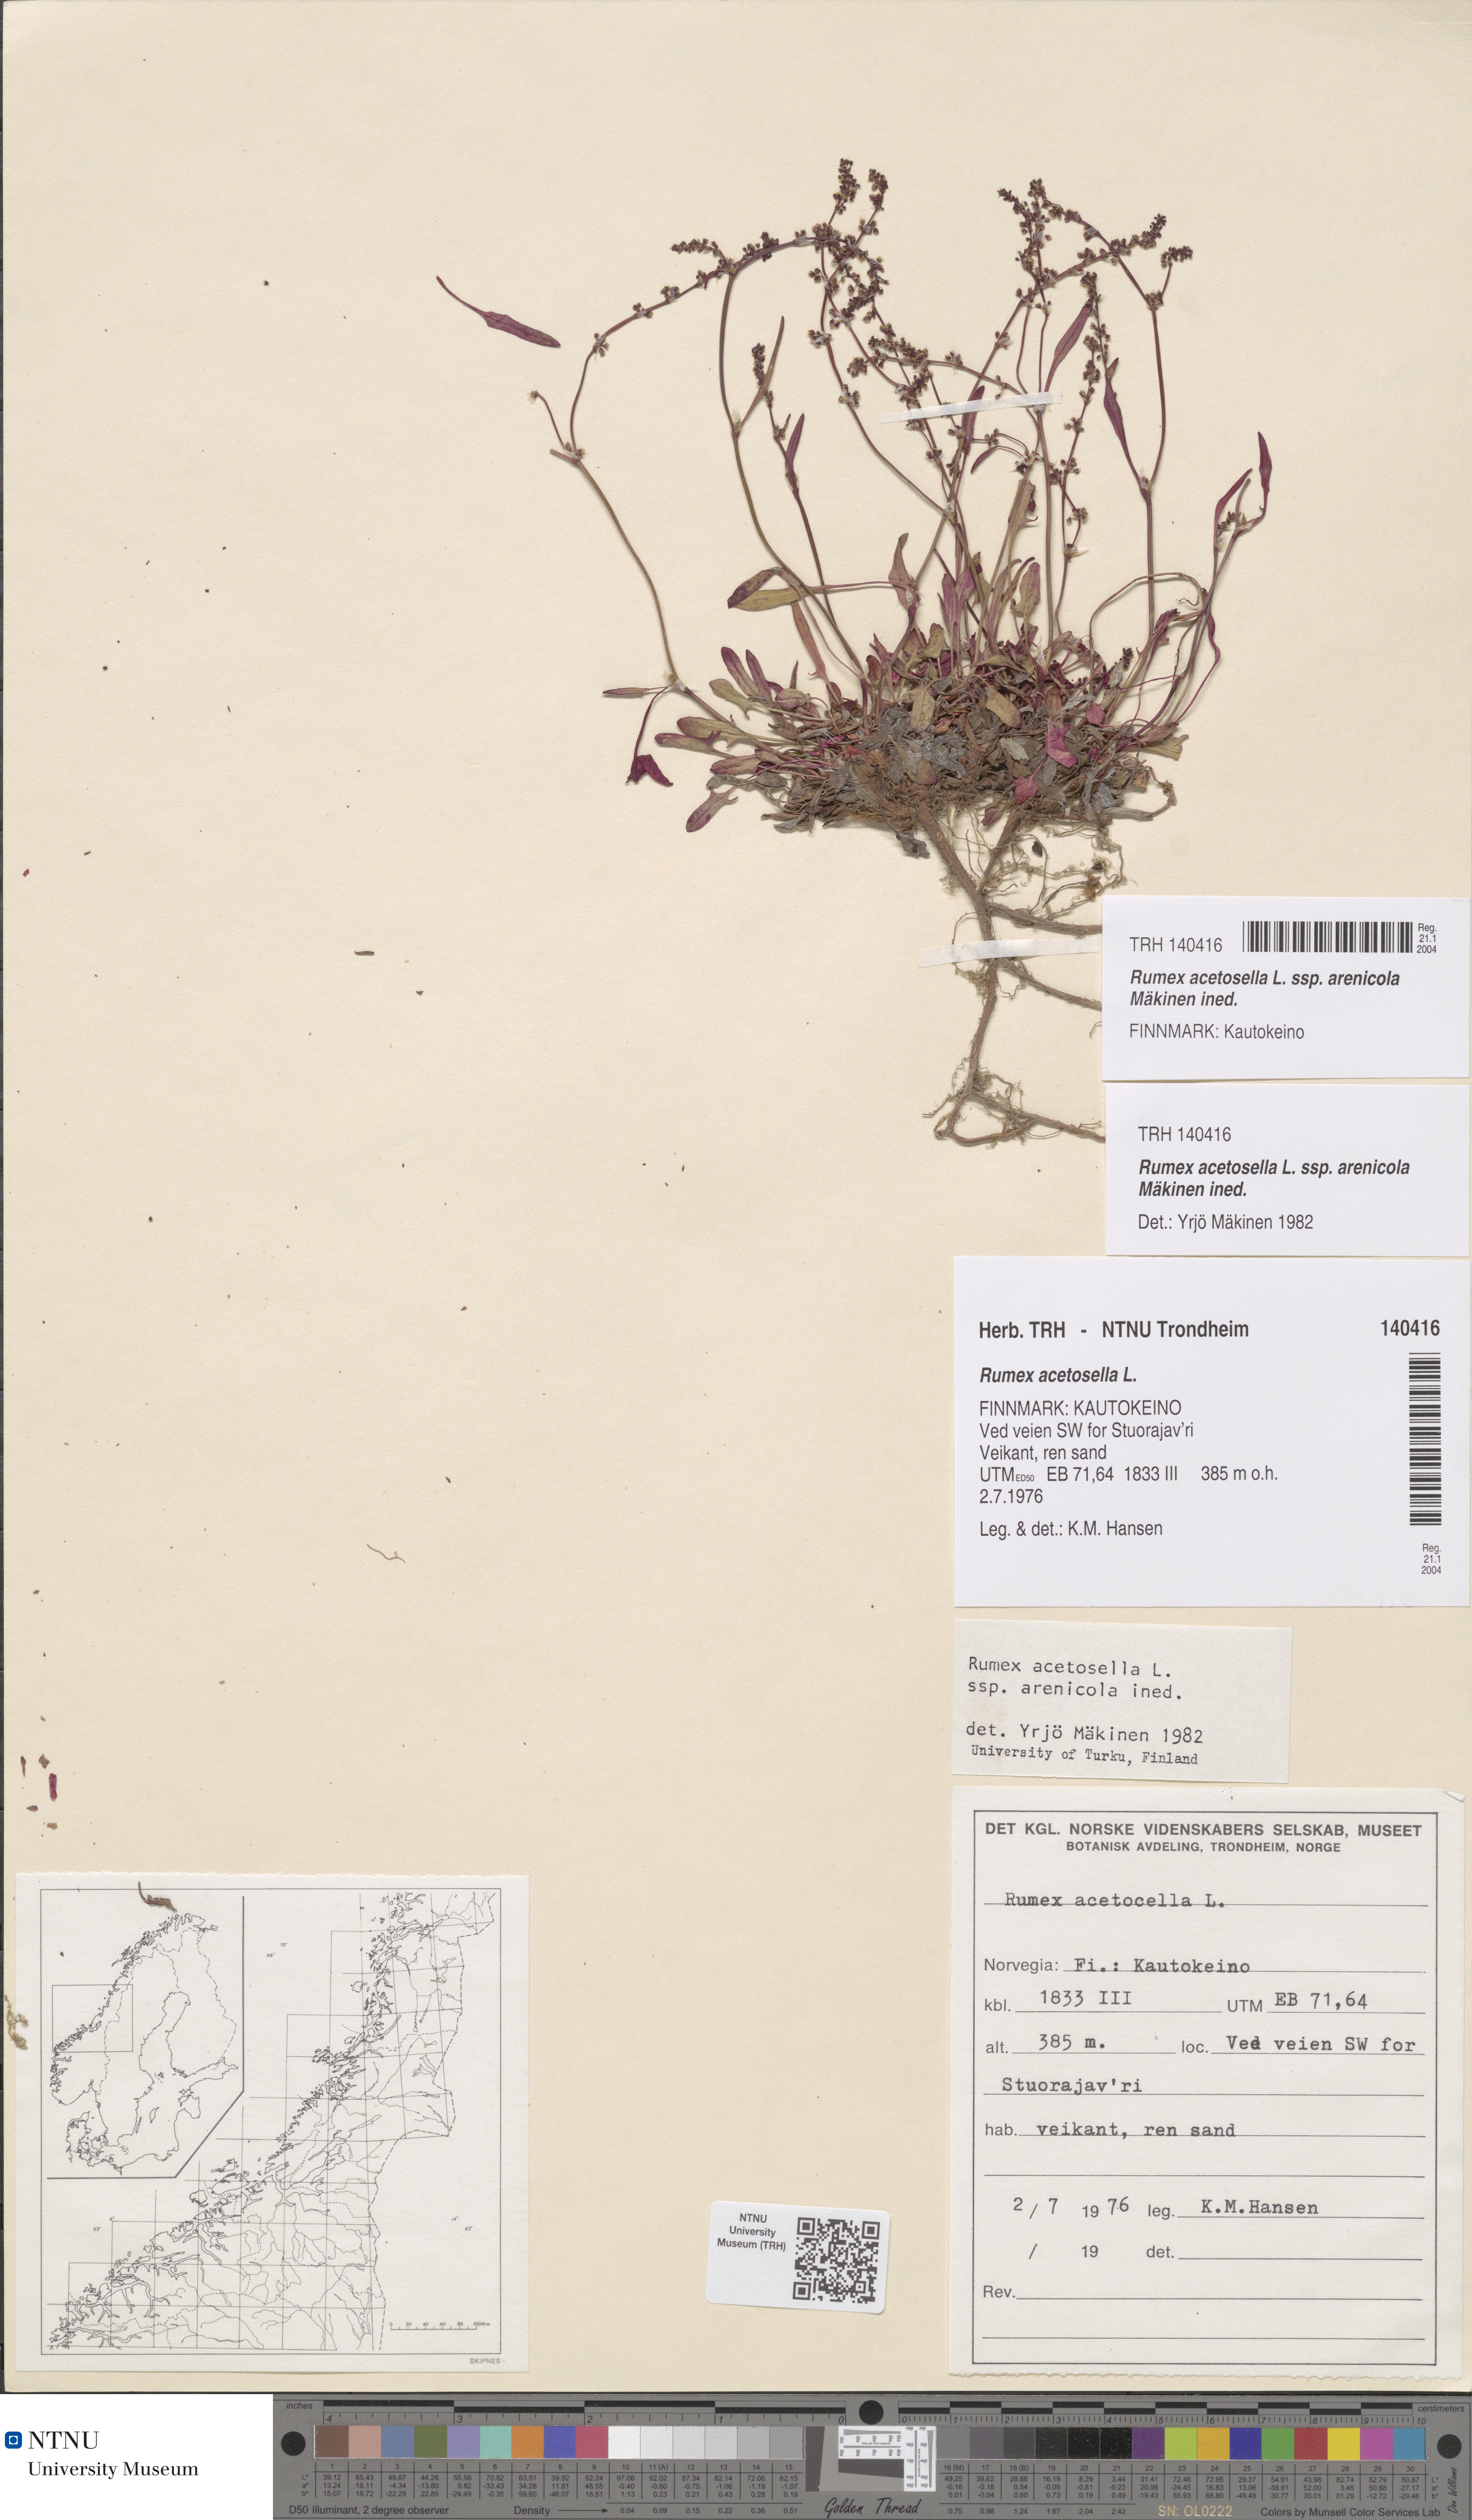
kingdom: Plantae
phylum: Tracheophyta
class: Magnoliopsida
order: Caryophyllales
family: Polygonaceae
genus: Rumex
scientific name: Rumex acetosella
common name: Common sheep sorrel
